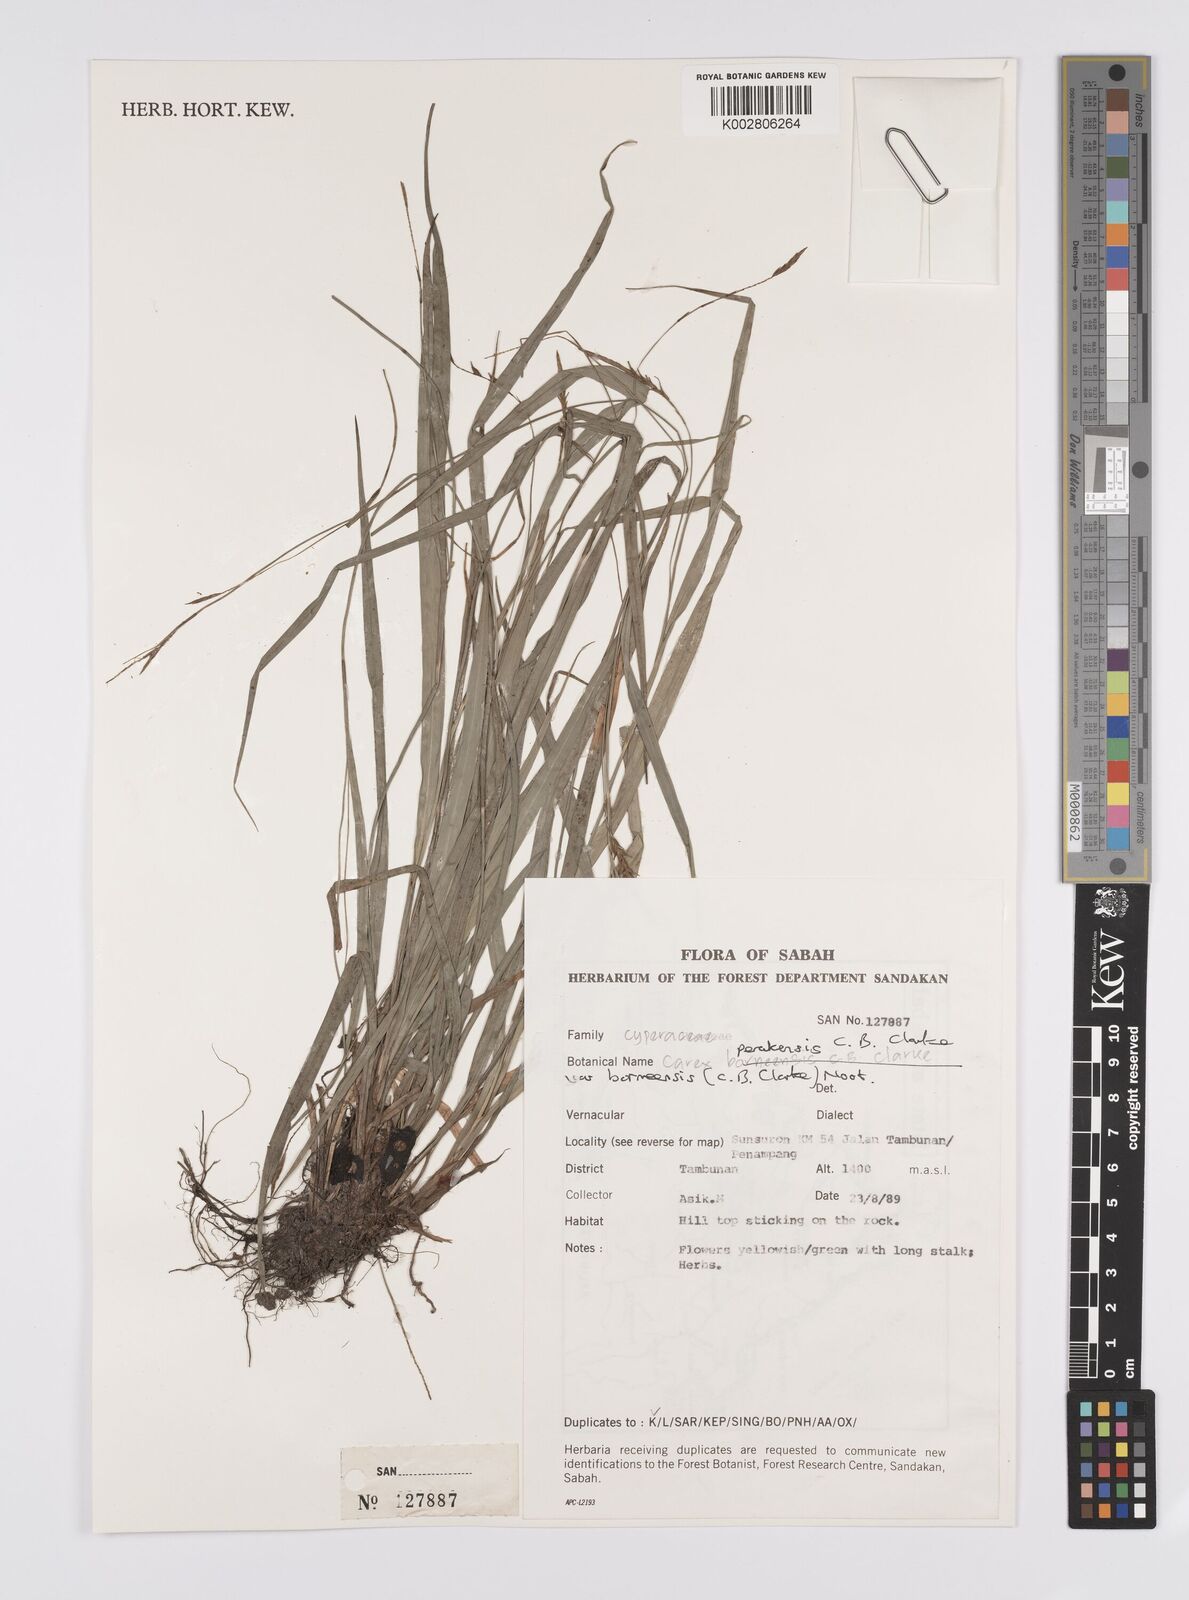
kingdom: Plantae
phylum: Tracheophyta
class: Liliopsida
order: Poales
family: Cyperaceae
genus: Carex
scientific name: Carex perakensis
